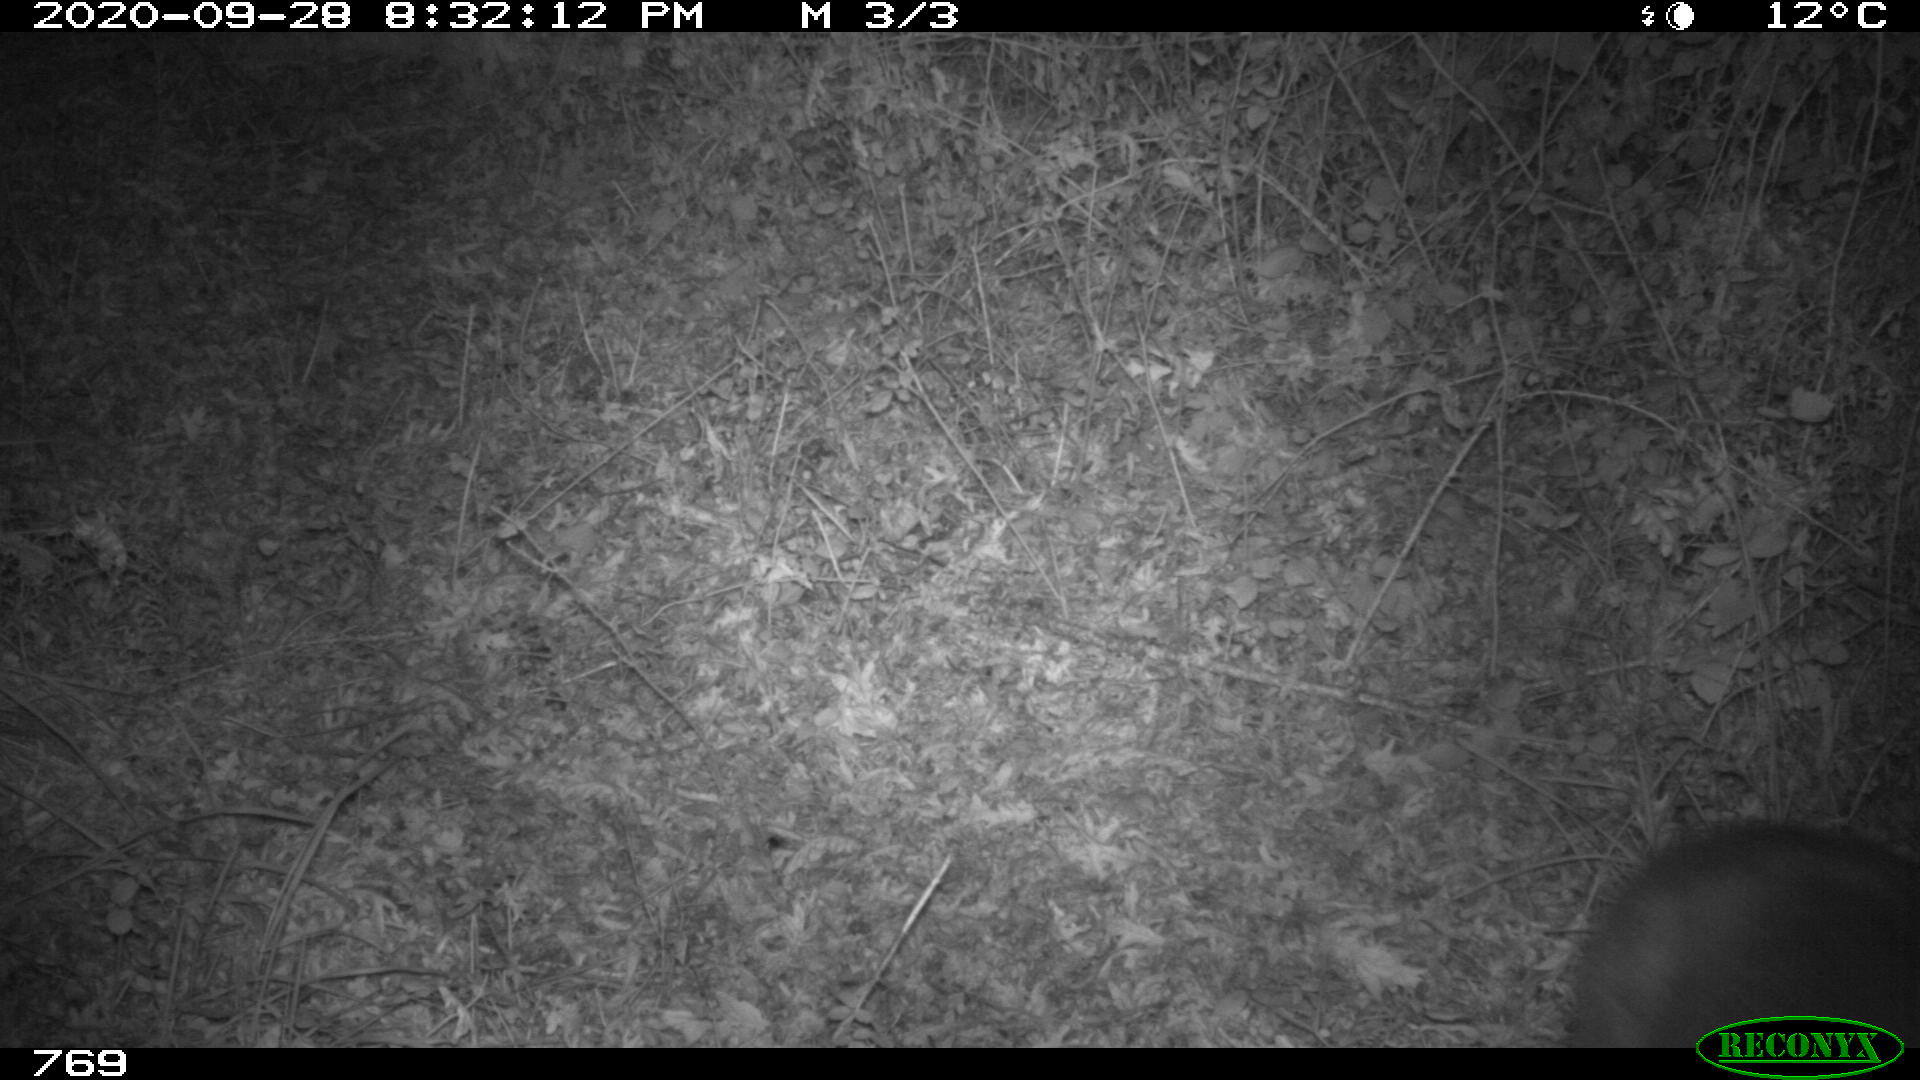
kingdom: Animalia
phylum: Chordata
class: Mammalia
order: Artiodactyla
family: Cervidae
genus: Capreolus
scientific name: Capreolus capreolus
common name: Western roe deer
